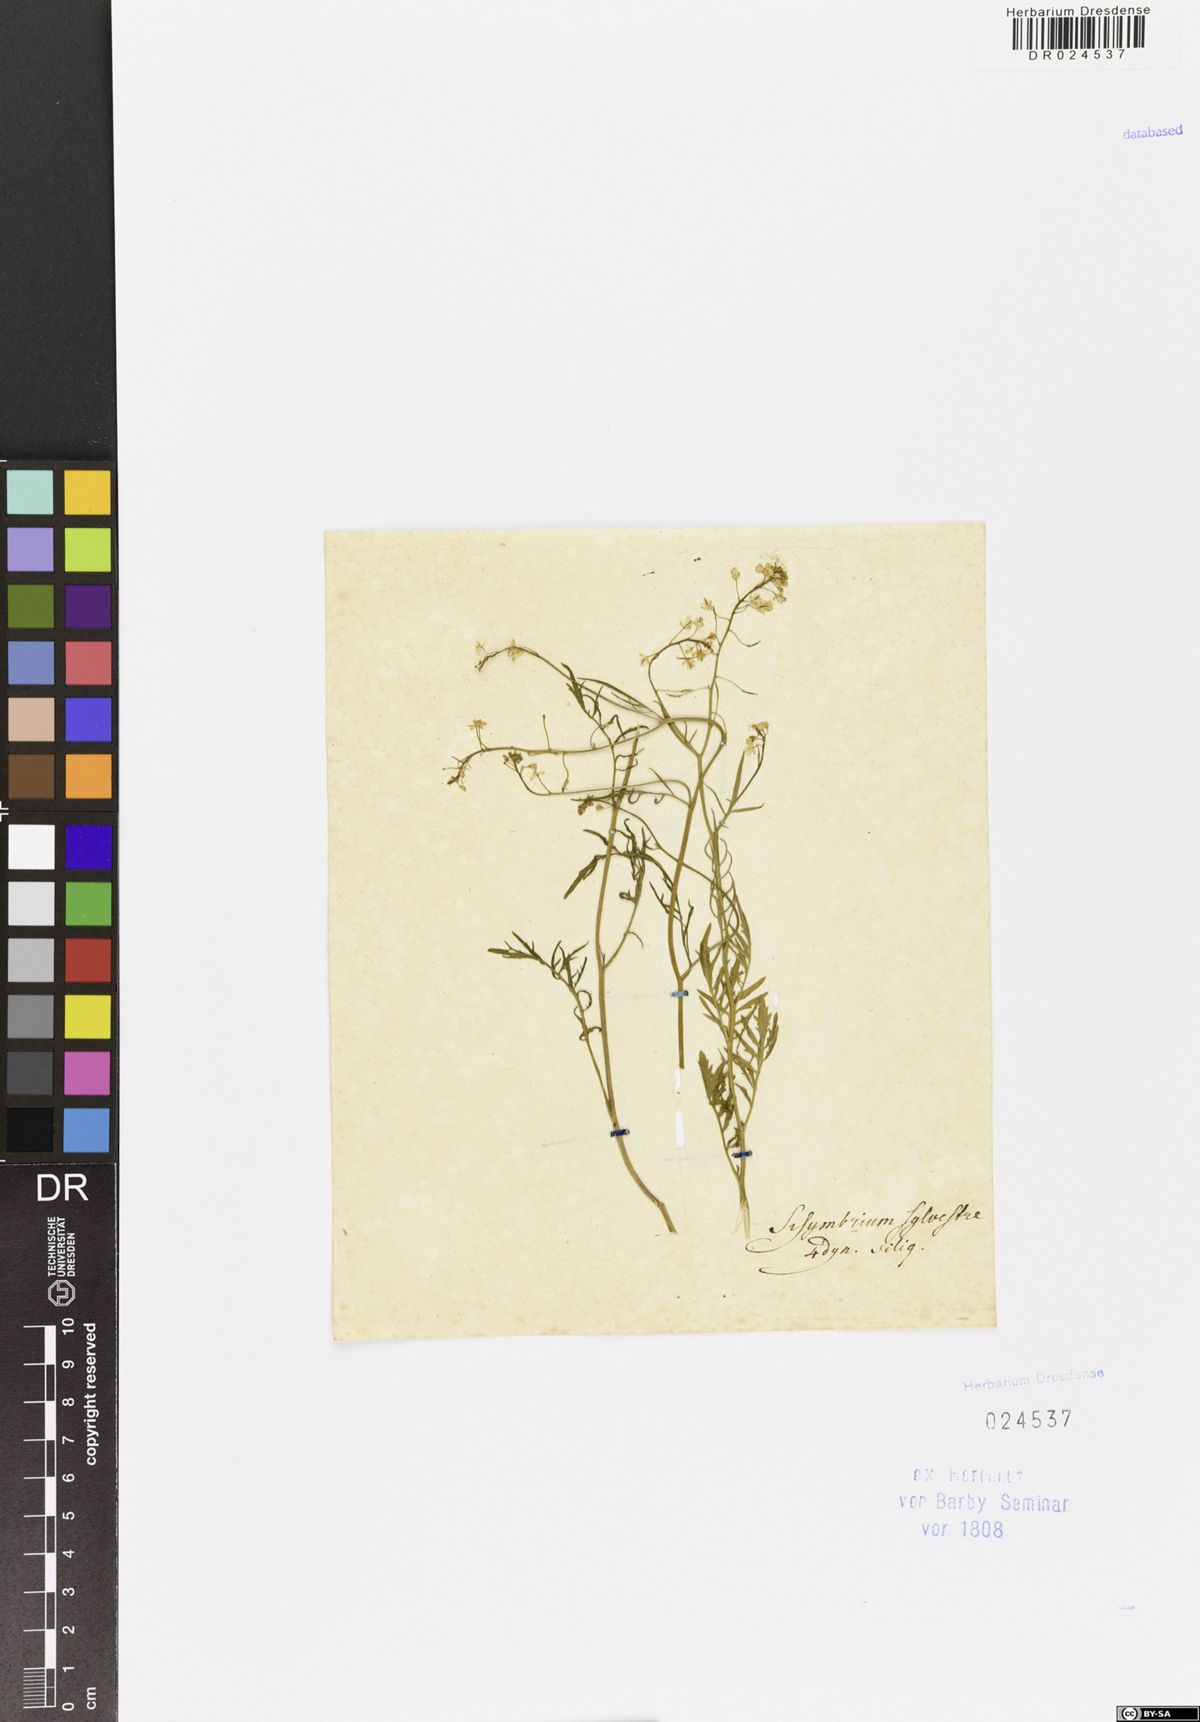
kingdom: Plantae
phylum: Tracheophyta
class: Magnoliopsida
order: Brassicales
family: Brassicaceae
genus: Rorippa
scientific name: Rorippa sylvestris
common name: Creeping yellowcress
